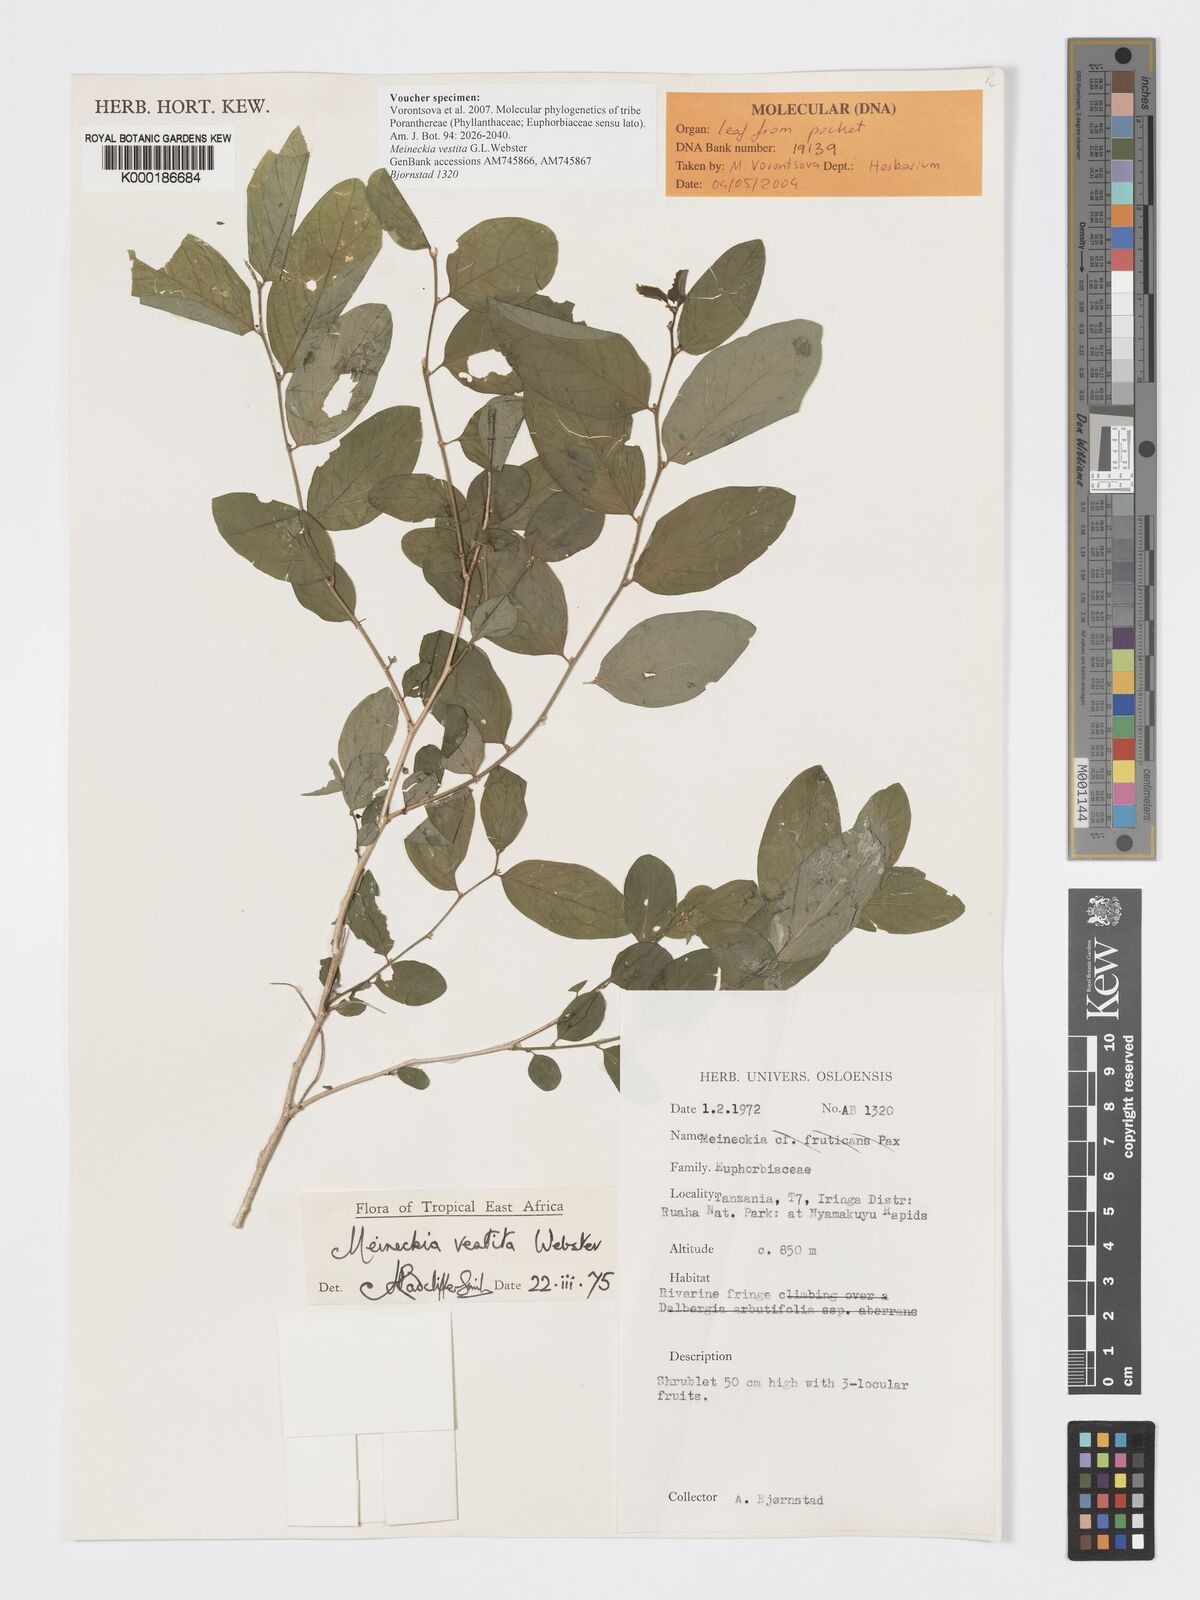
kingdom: Plantae
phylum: Tracheophyta
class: Magnoliopsida
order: Malpighiales
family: Phyllanthaceae
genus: Meineckia
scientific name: Meineckia vestita
